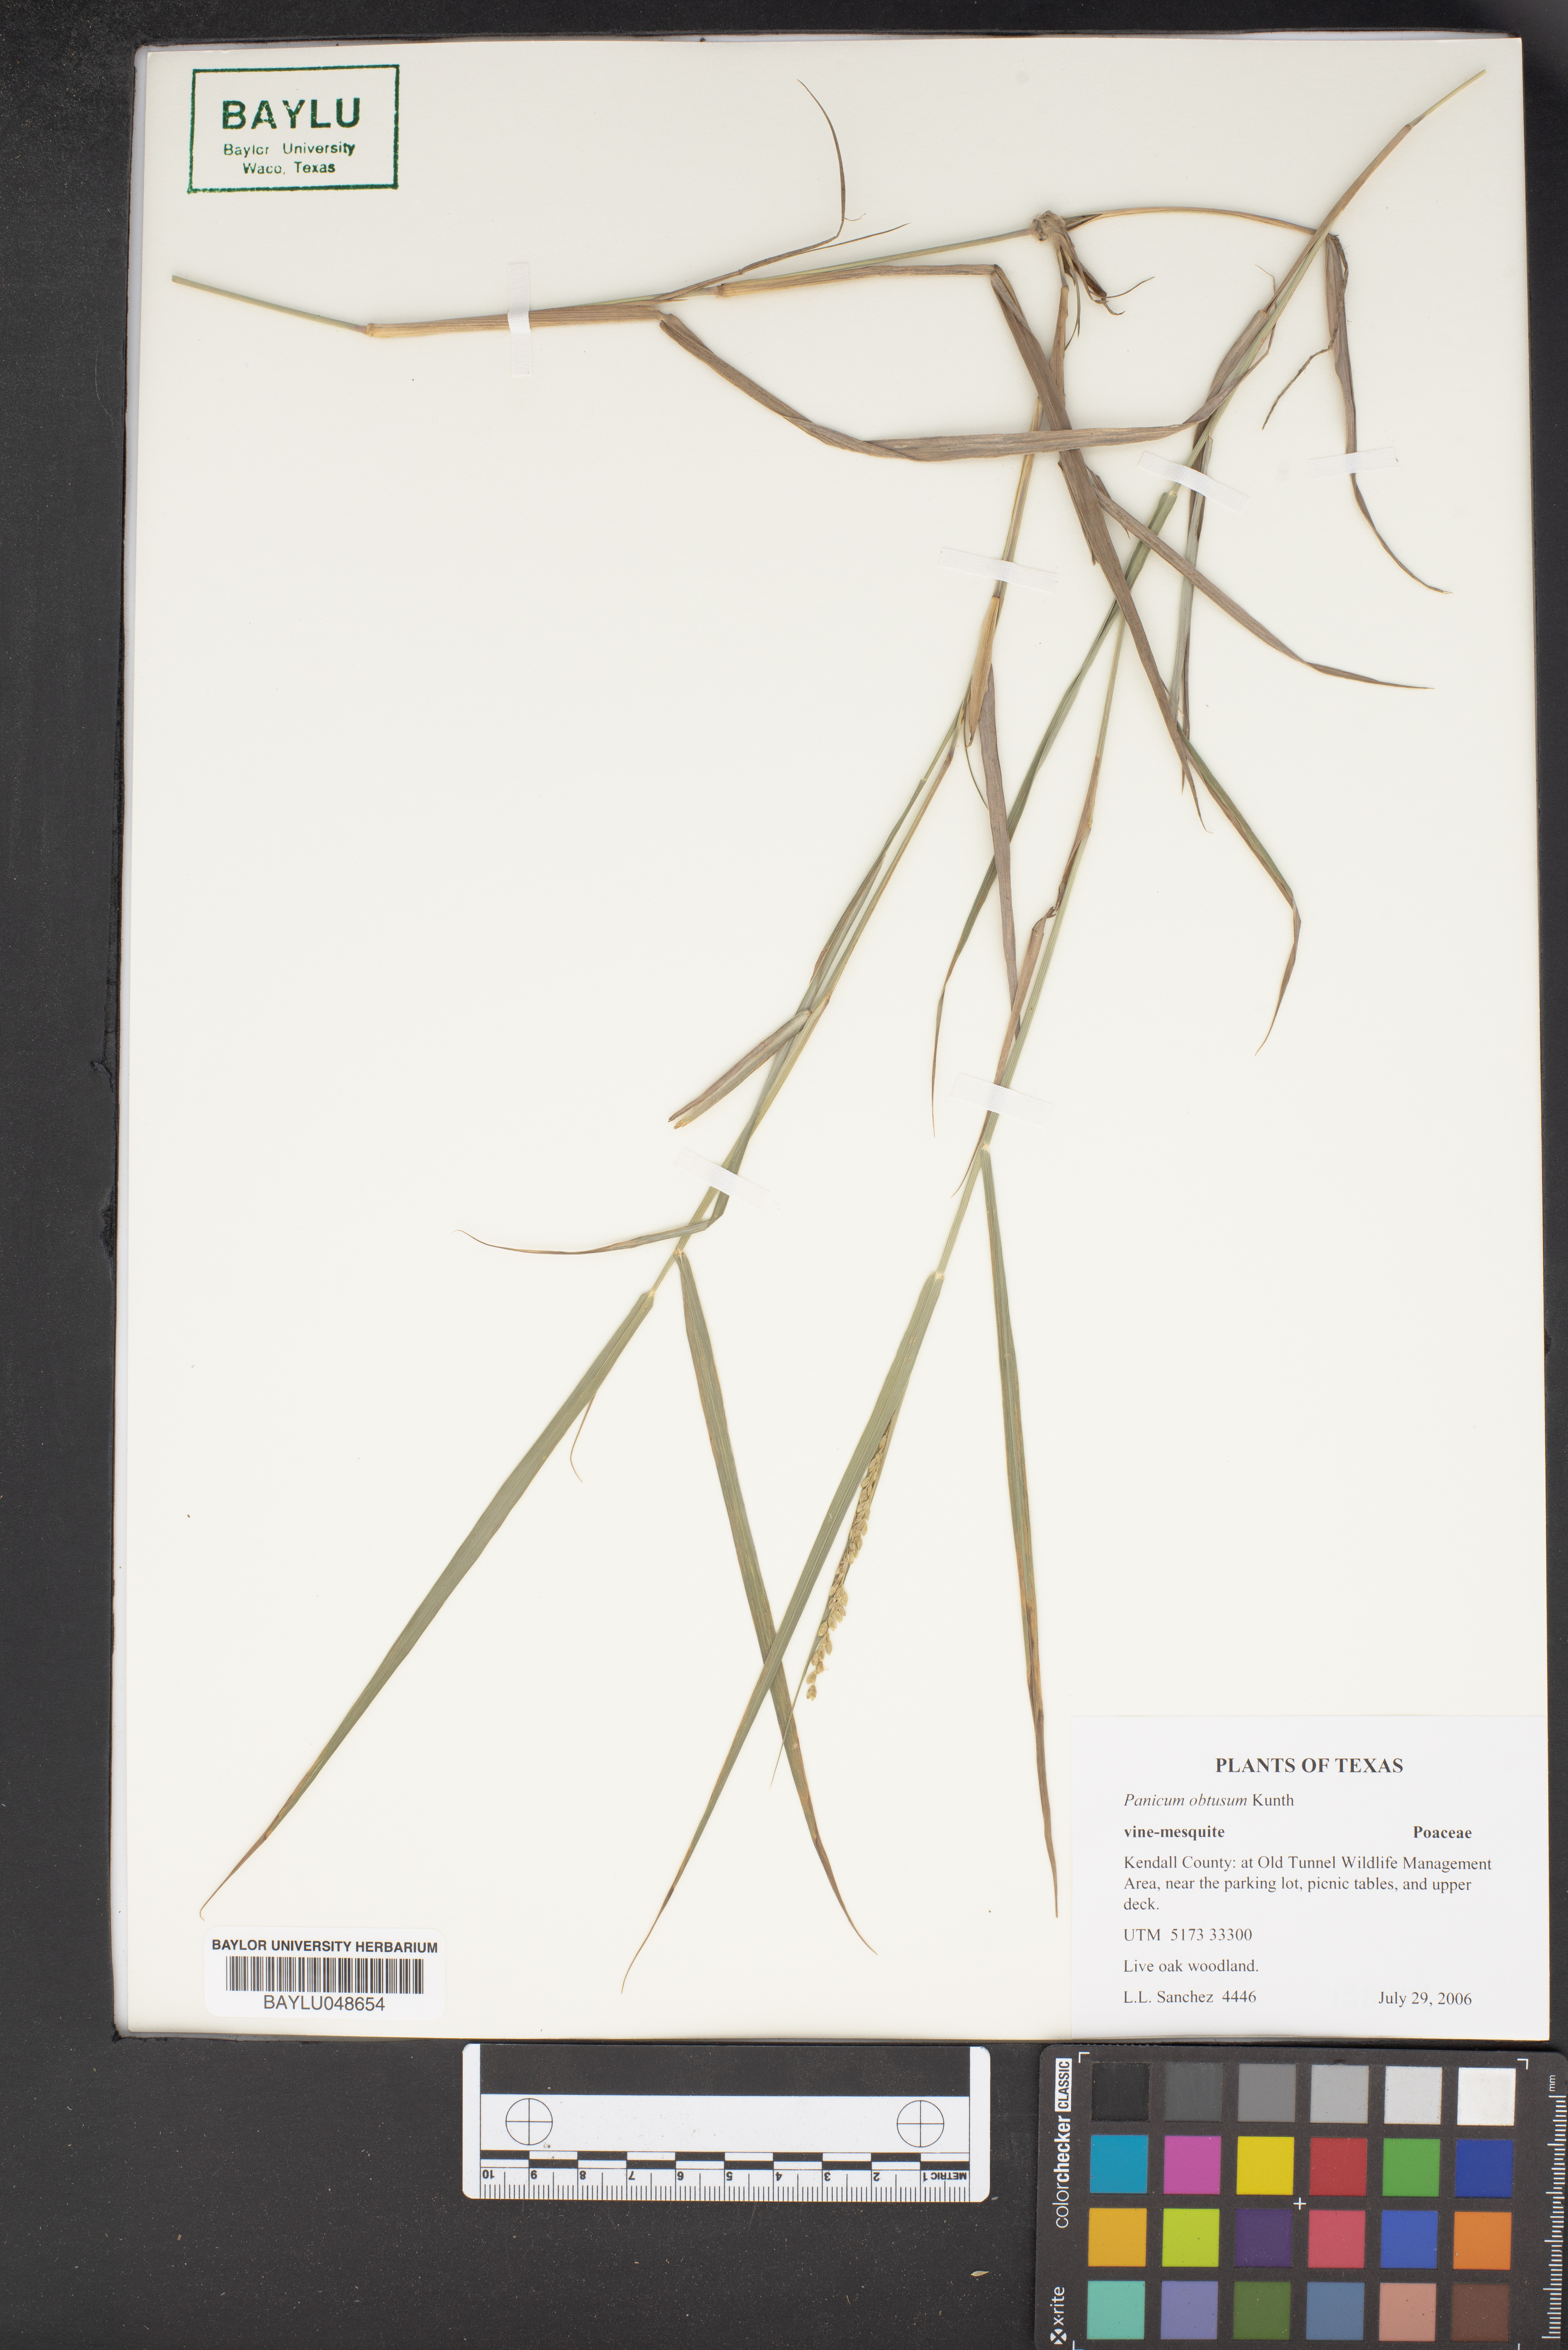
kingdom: Plantae
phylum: Tracheophyta
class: Liliopsida
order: Poales
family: Poaceae
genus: Hopia
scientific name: Hopia obtusa
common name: Vine-mesquite
